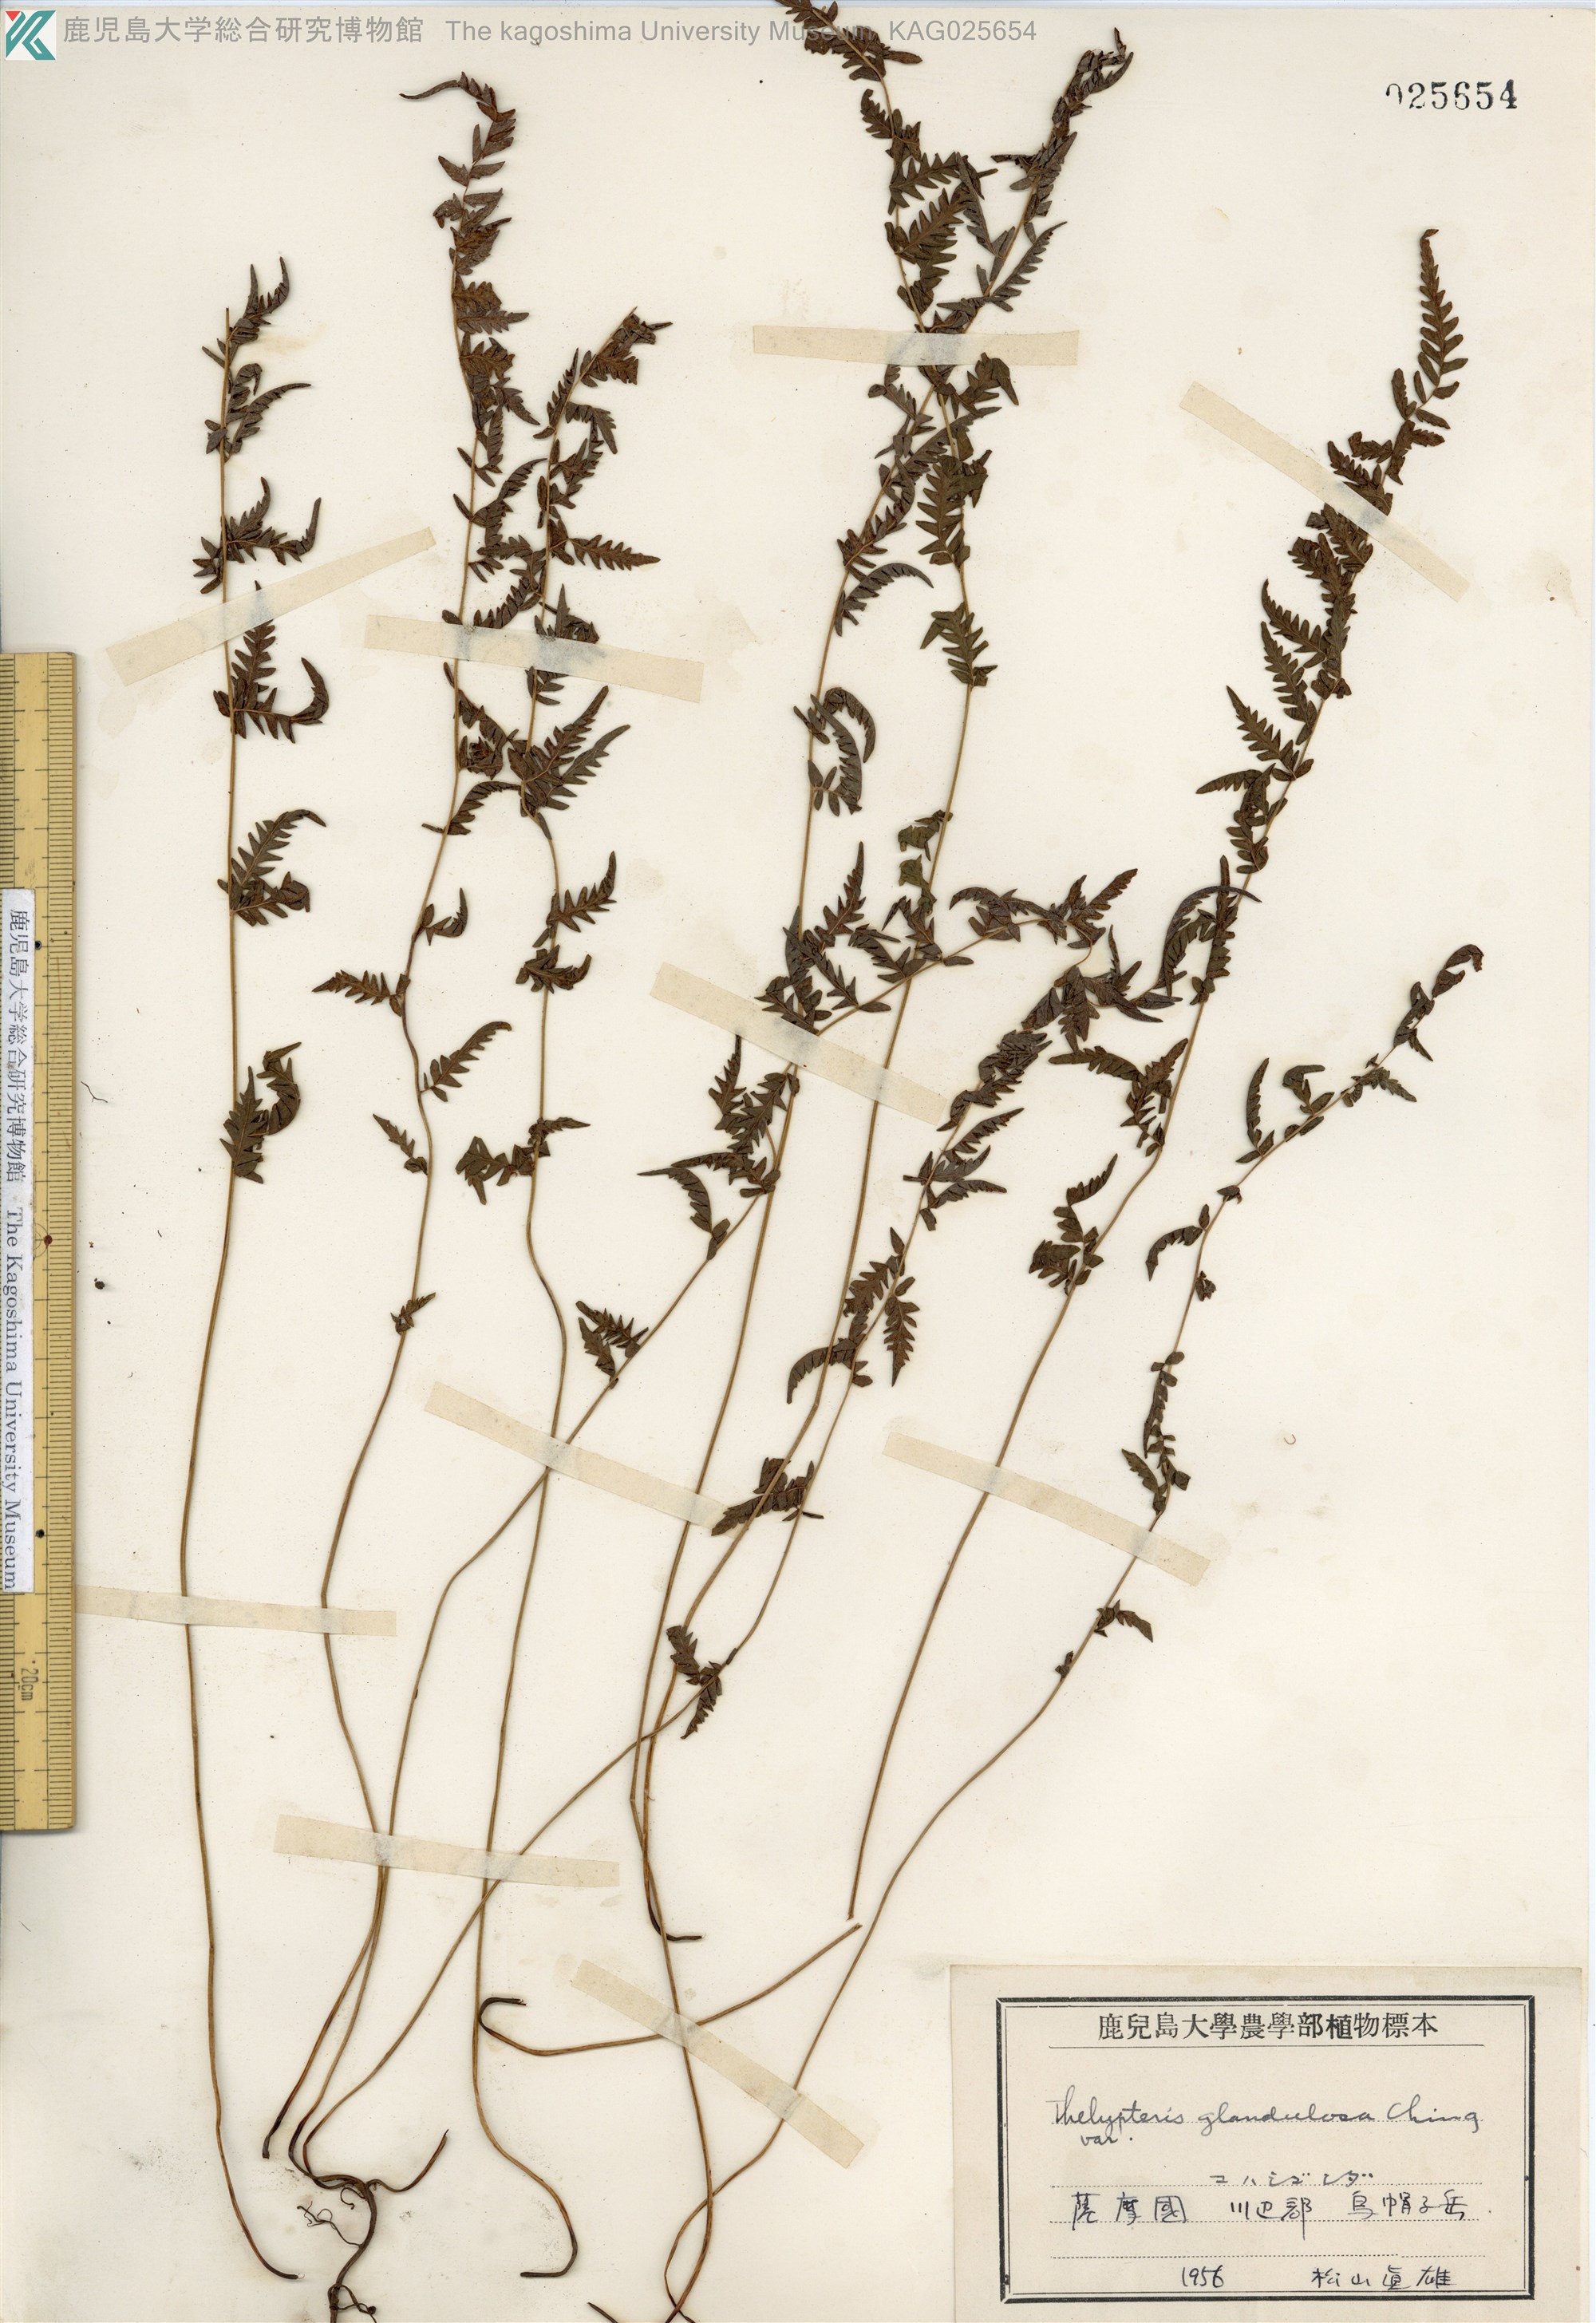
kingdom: Plantae
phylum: Tracheophyta
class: Polypodiopsida
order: Polypodiales
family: Thelypteridaceae
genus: Amauropelta
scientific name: Amauropelta angustifrons
